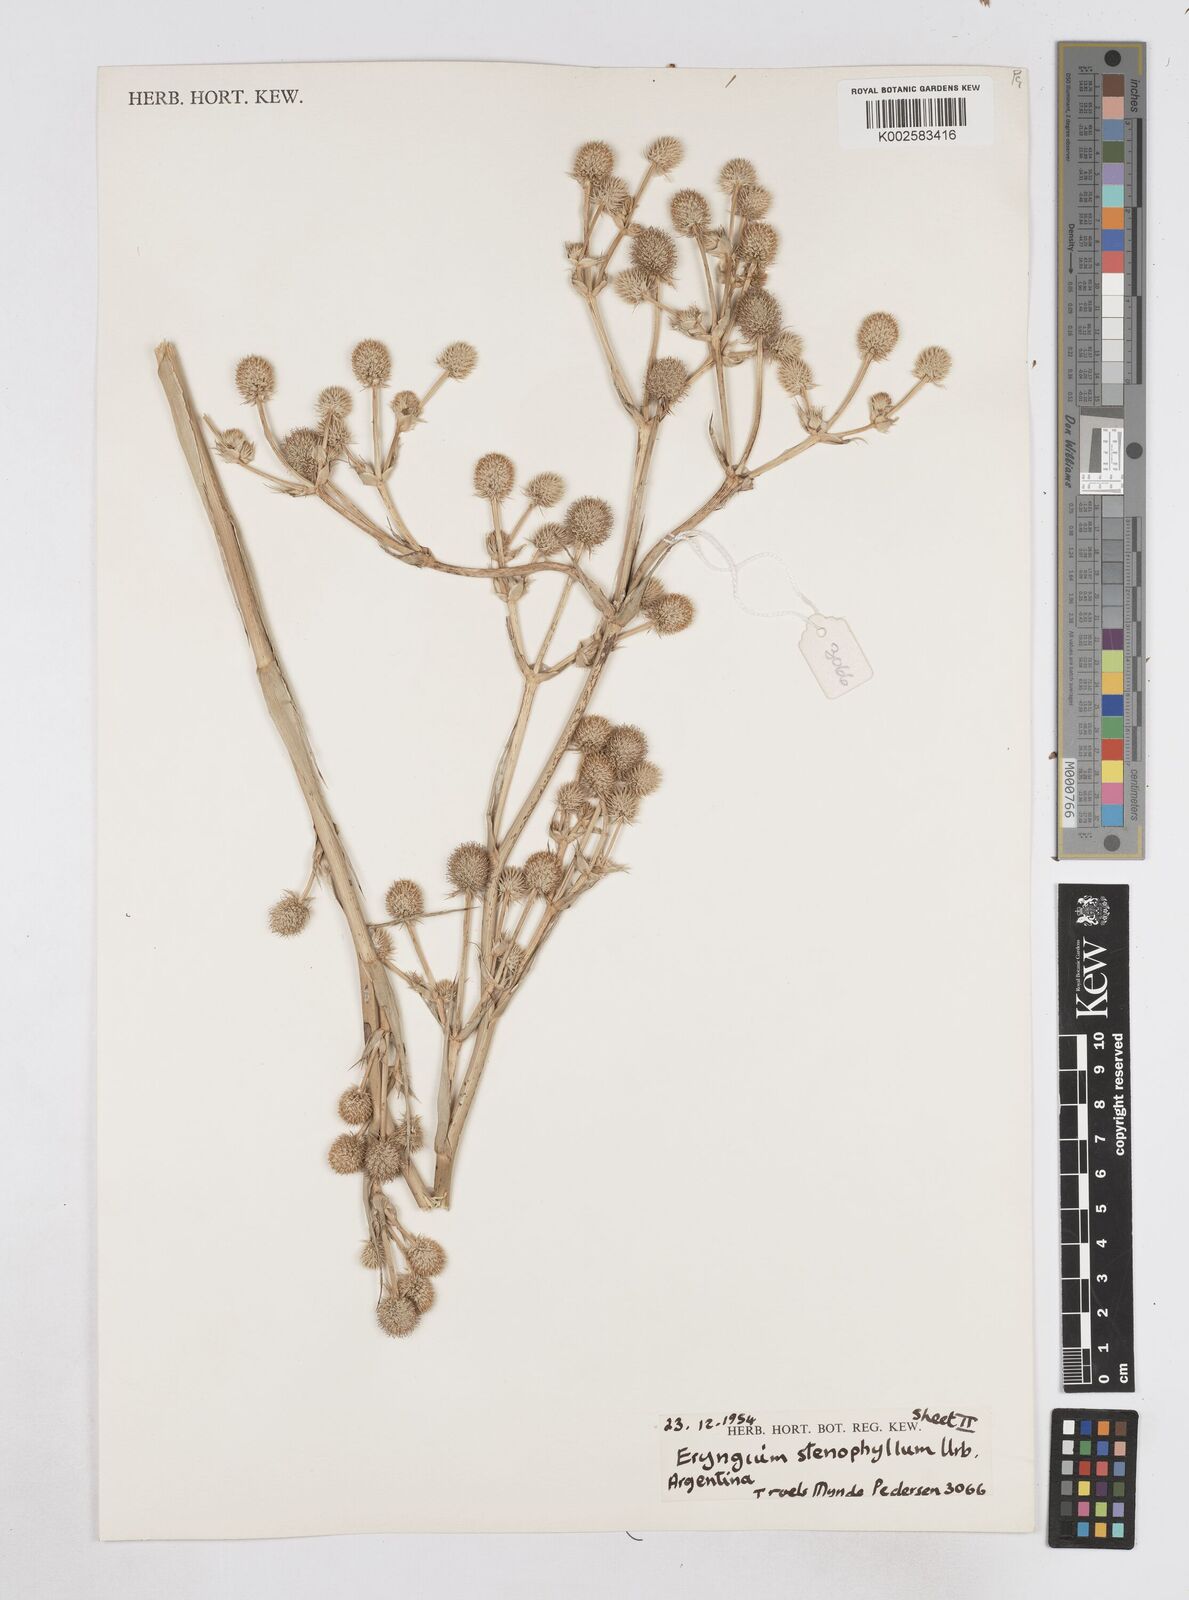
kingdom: Plantae
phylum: Tracheophyta
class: Magnoliopsida
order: Apiales
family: Apiaceae
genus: Eryngium
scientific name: Eryngium stenophyllum
